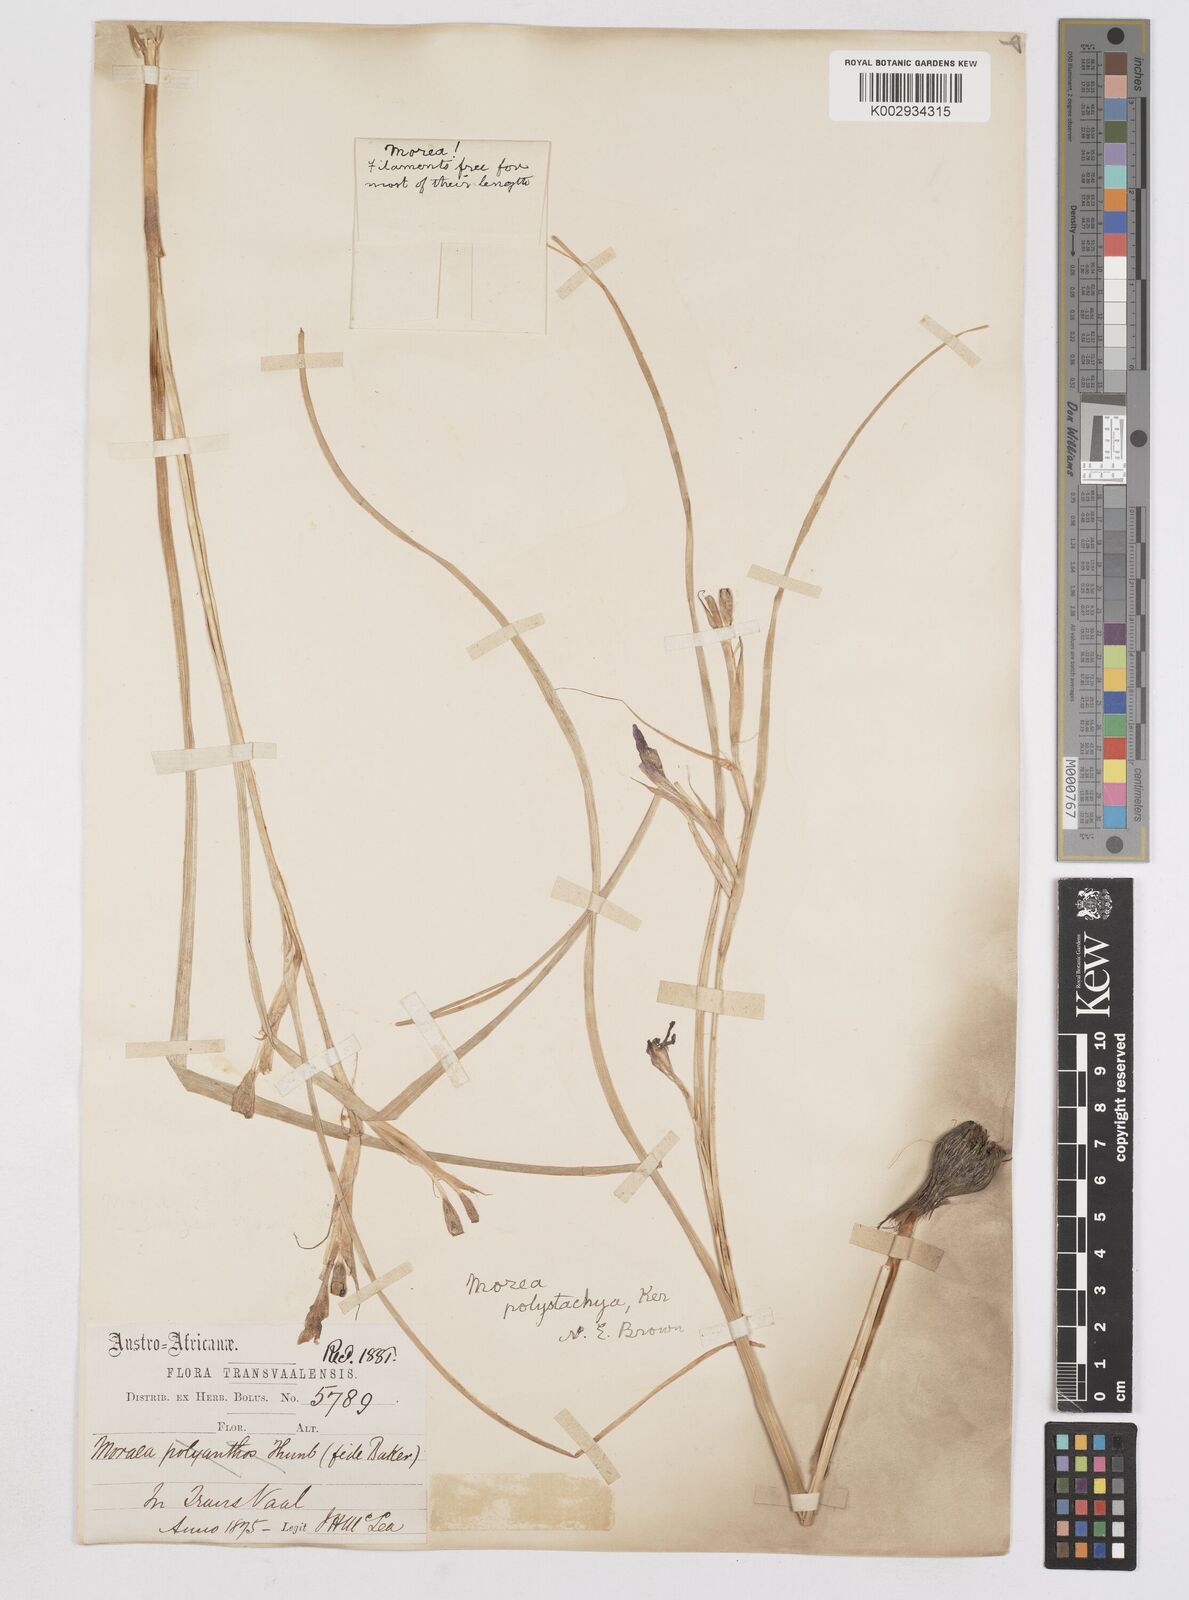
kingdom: Plantae
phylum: Tracheophyta
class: Liliopsida
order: Asparagales
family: Iridaceae
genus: Moraea
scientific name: Moraea polystachya
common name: Blue-tulip
